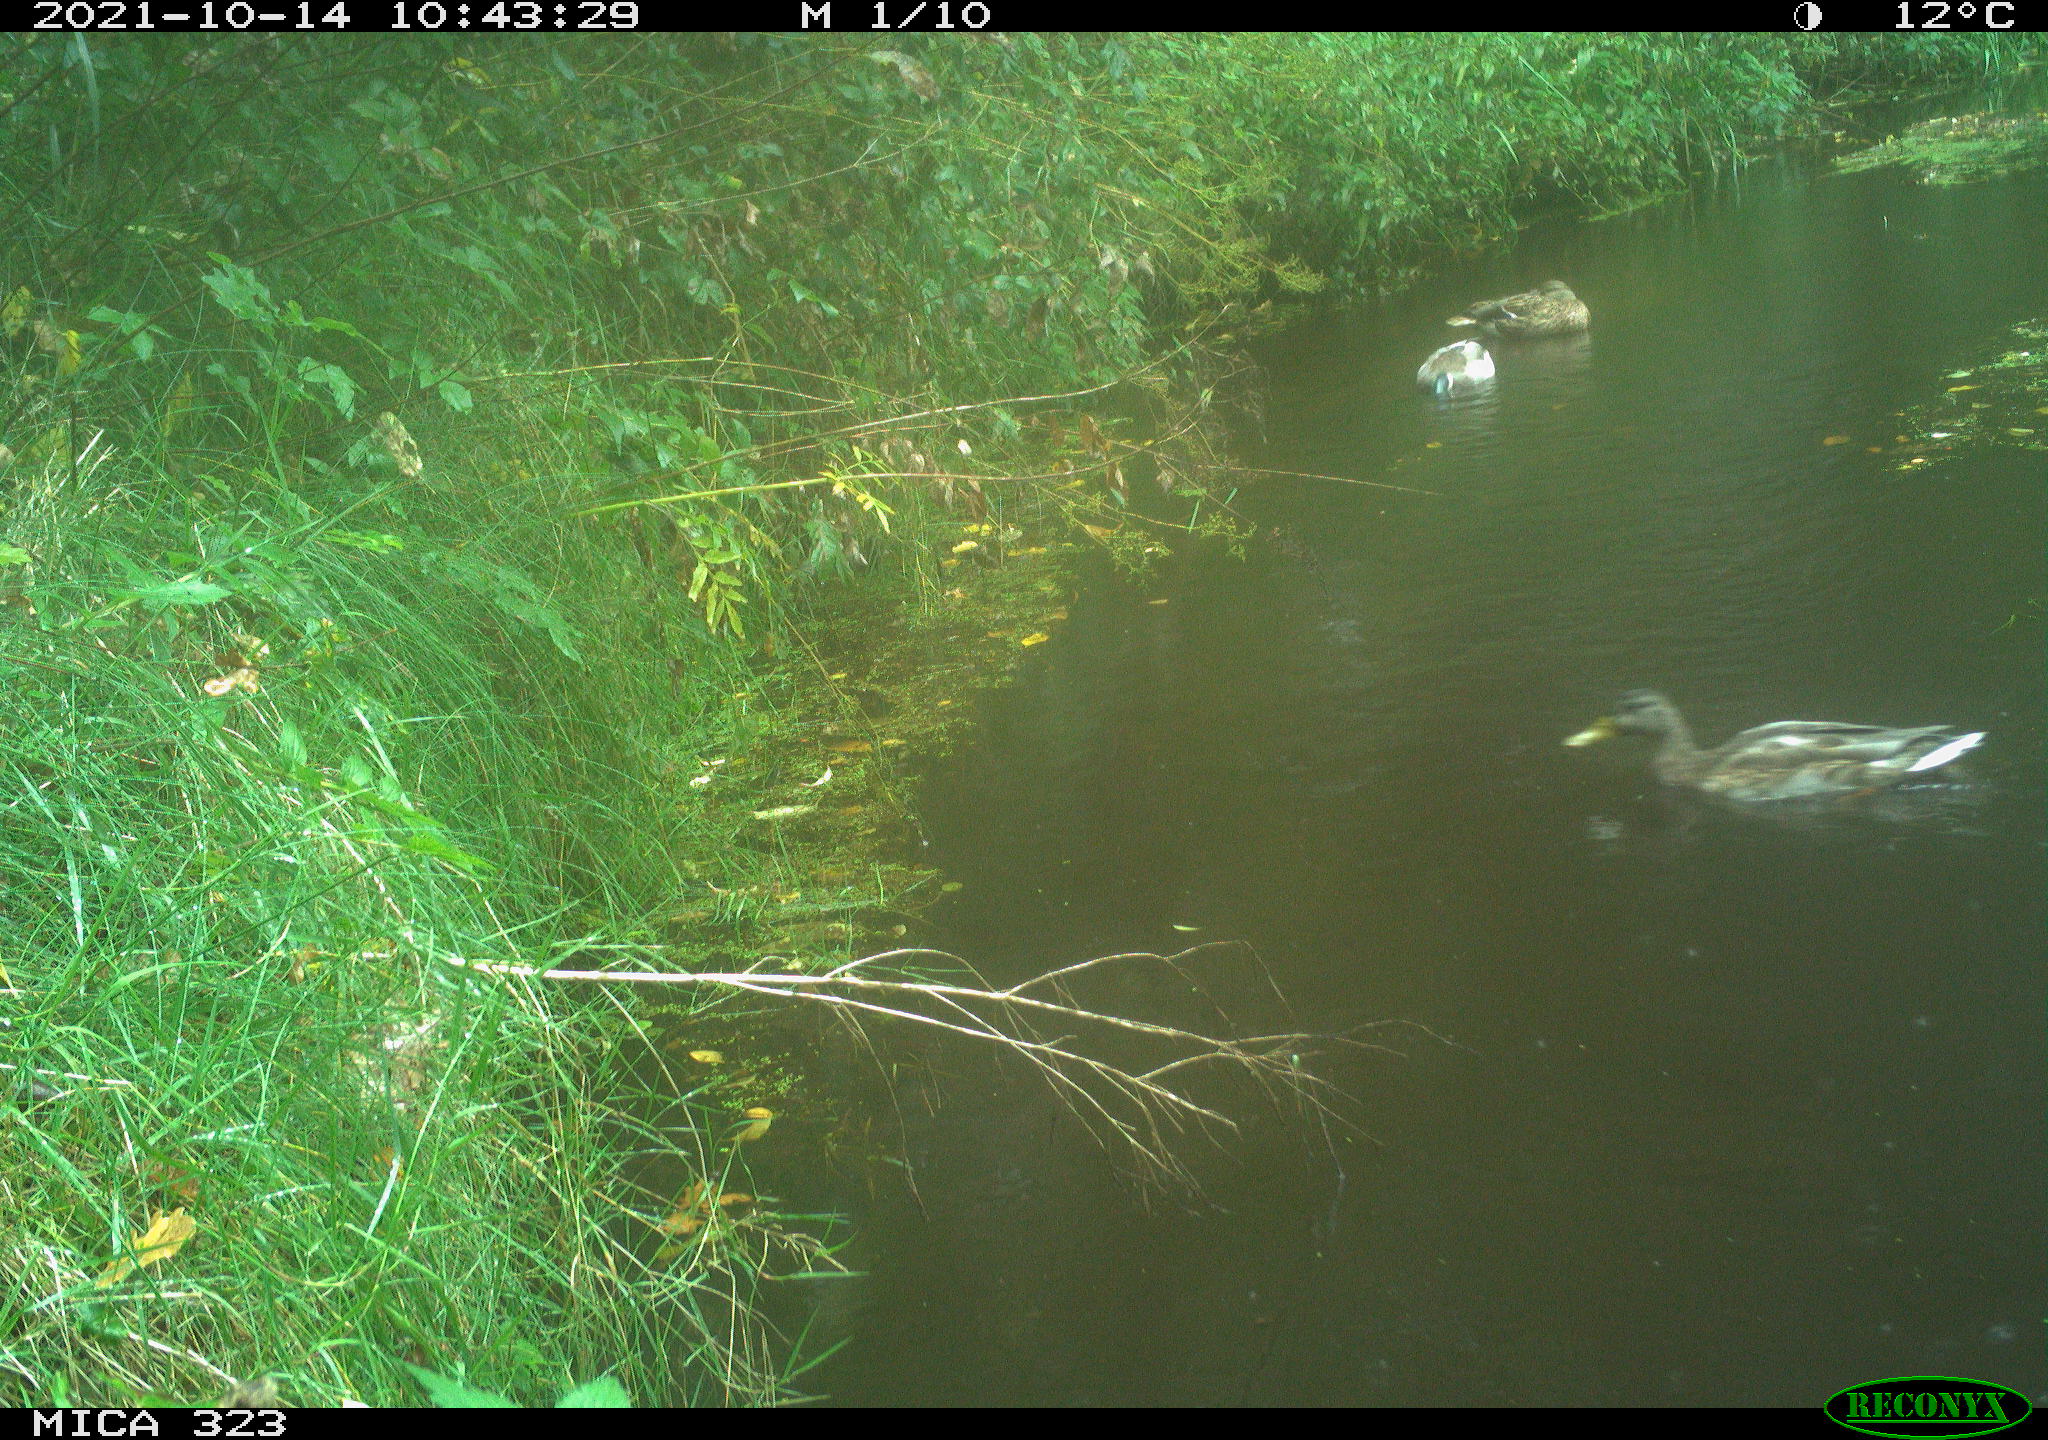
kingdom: Animalia
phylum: Chordata
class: Aves
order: Anseriformes
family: Anatidae
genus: Anas
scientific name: Anas platyrhynchos
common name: Mallard
